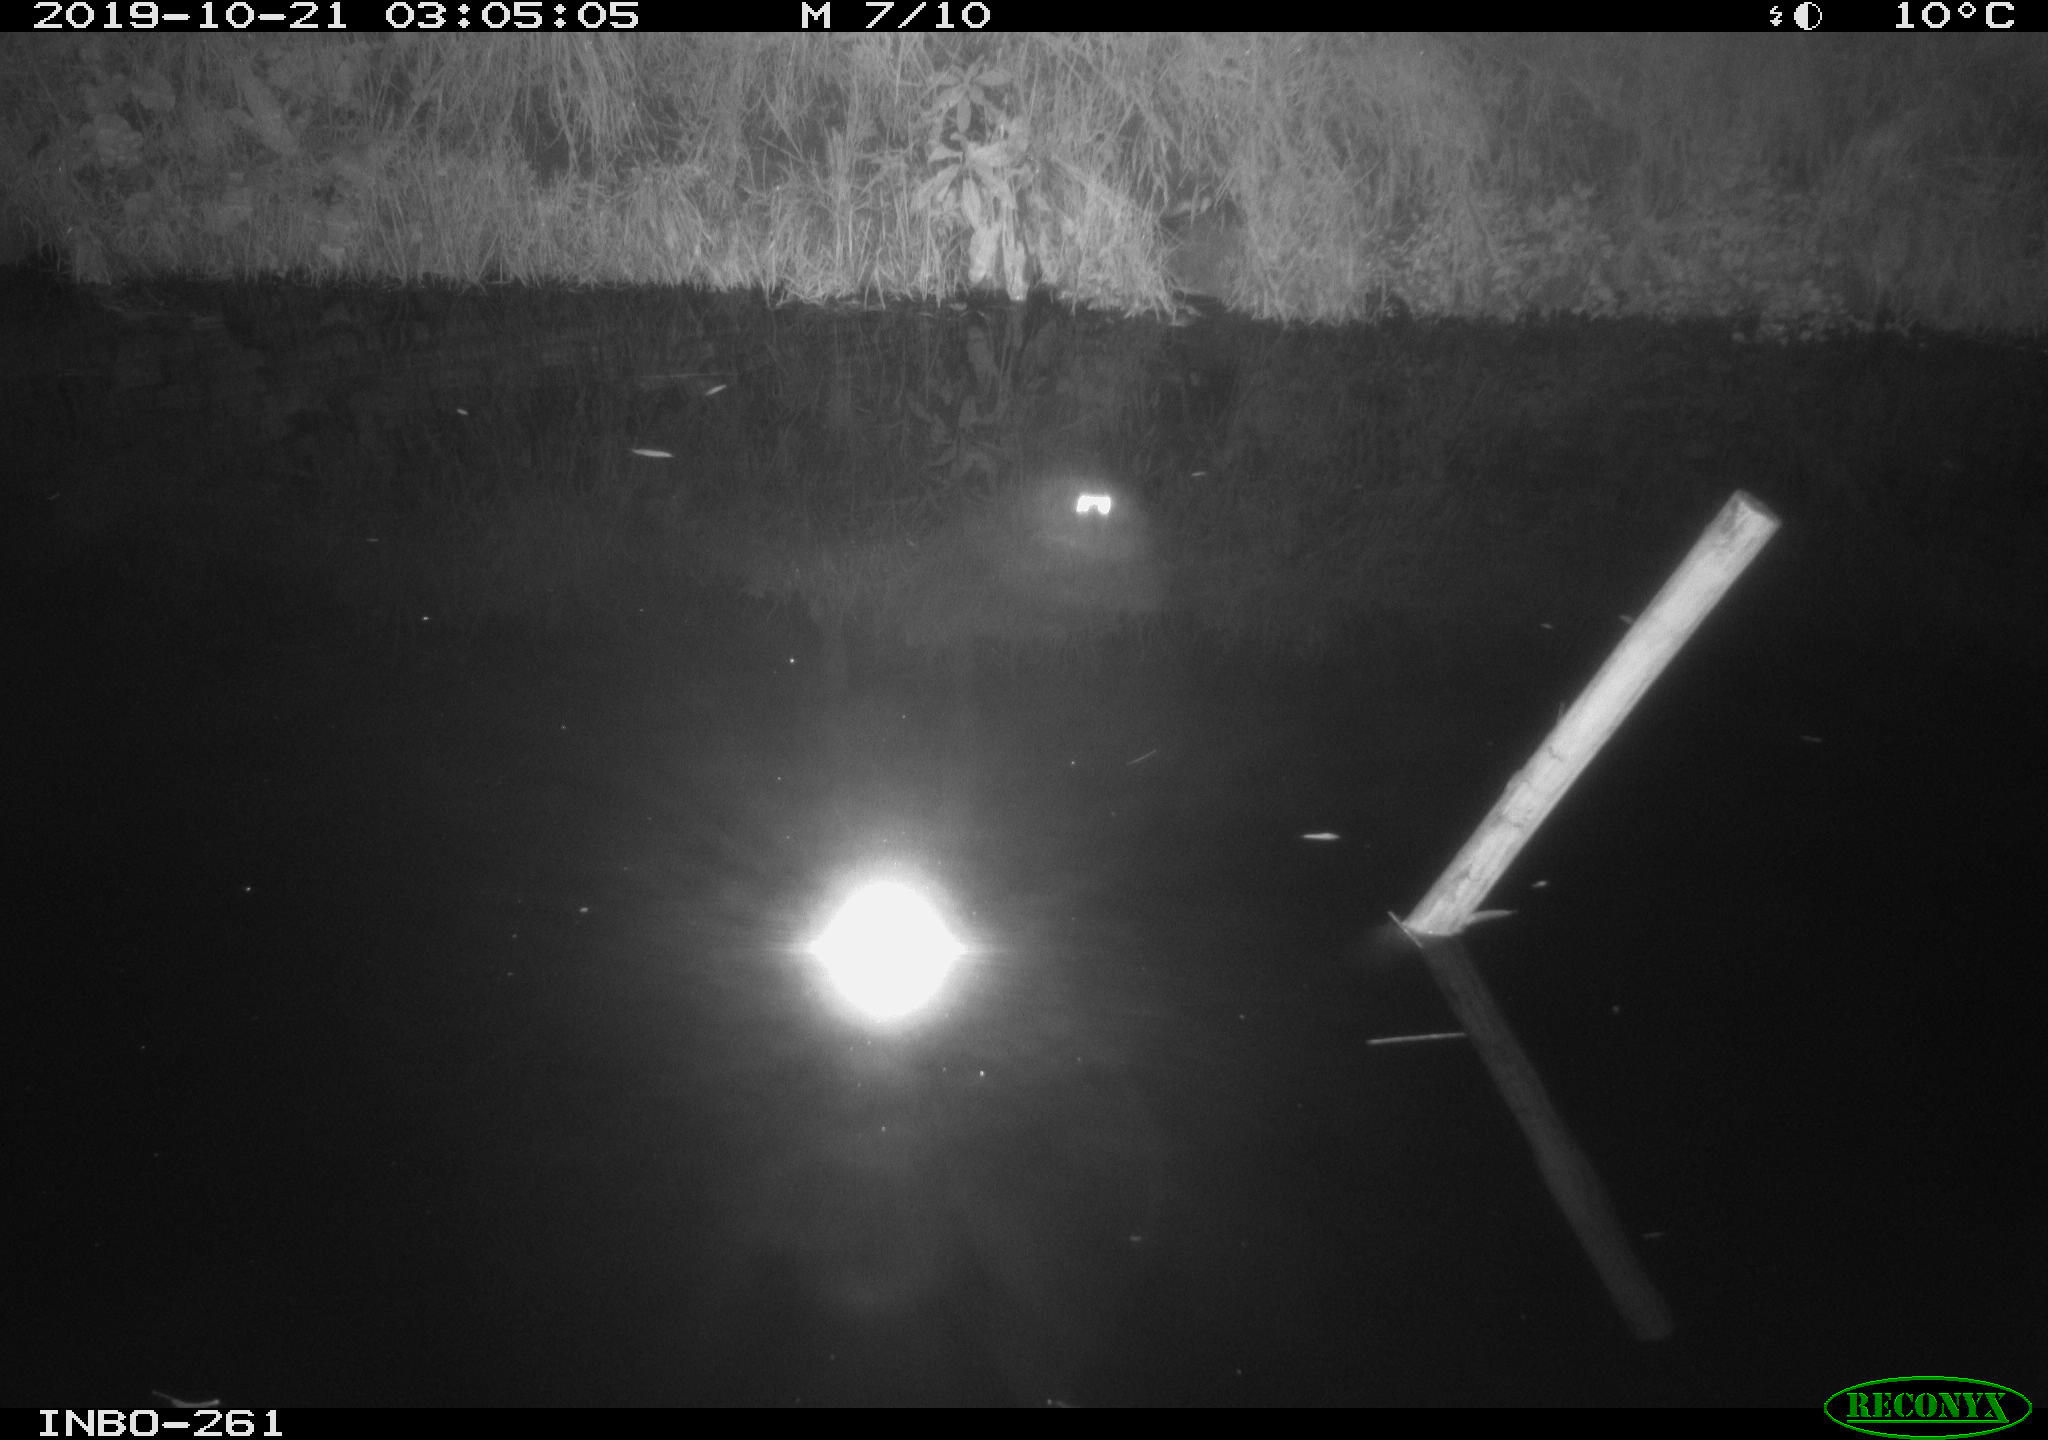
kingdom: Animalia
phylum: Chordata
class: Aves
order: Anseriformes
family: Anatidae
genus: Anas
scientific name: Anas platyrhynchos
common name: Mallard
